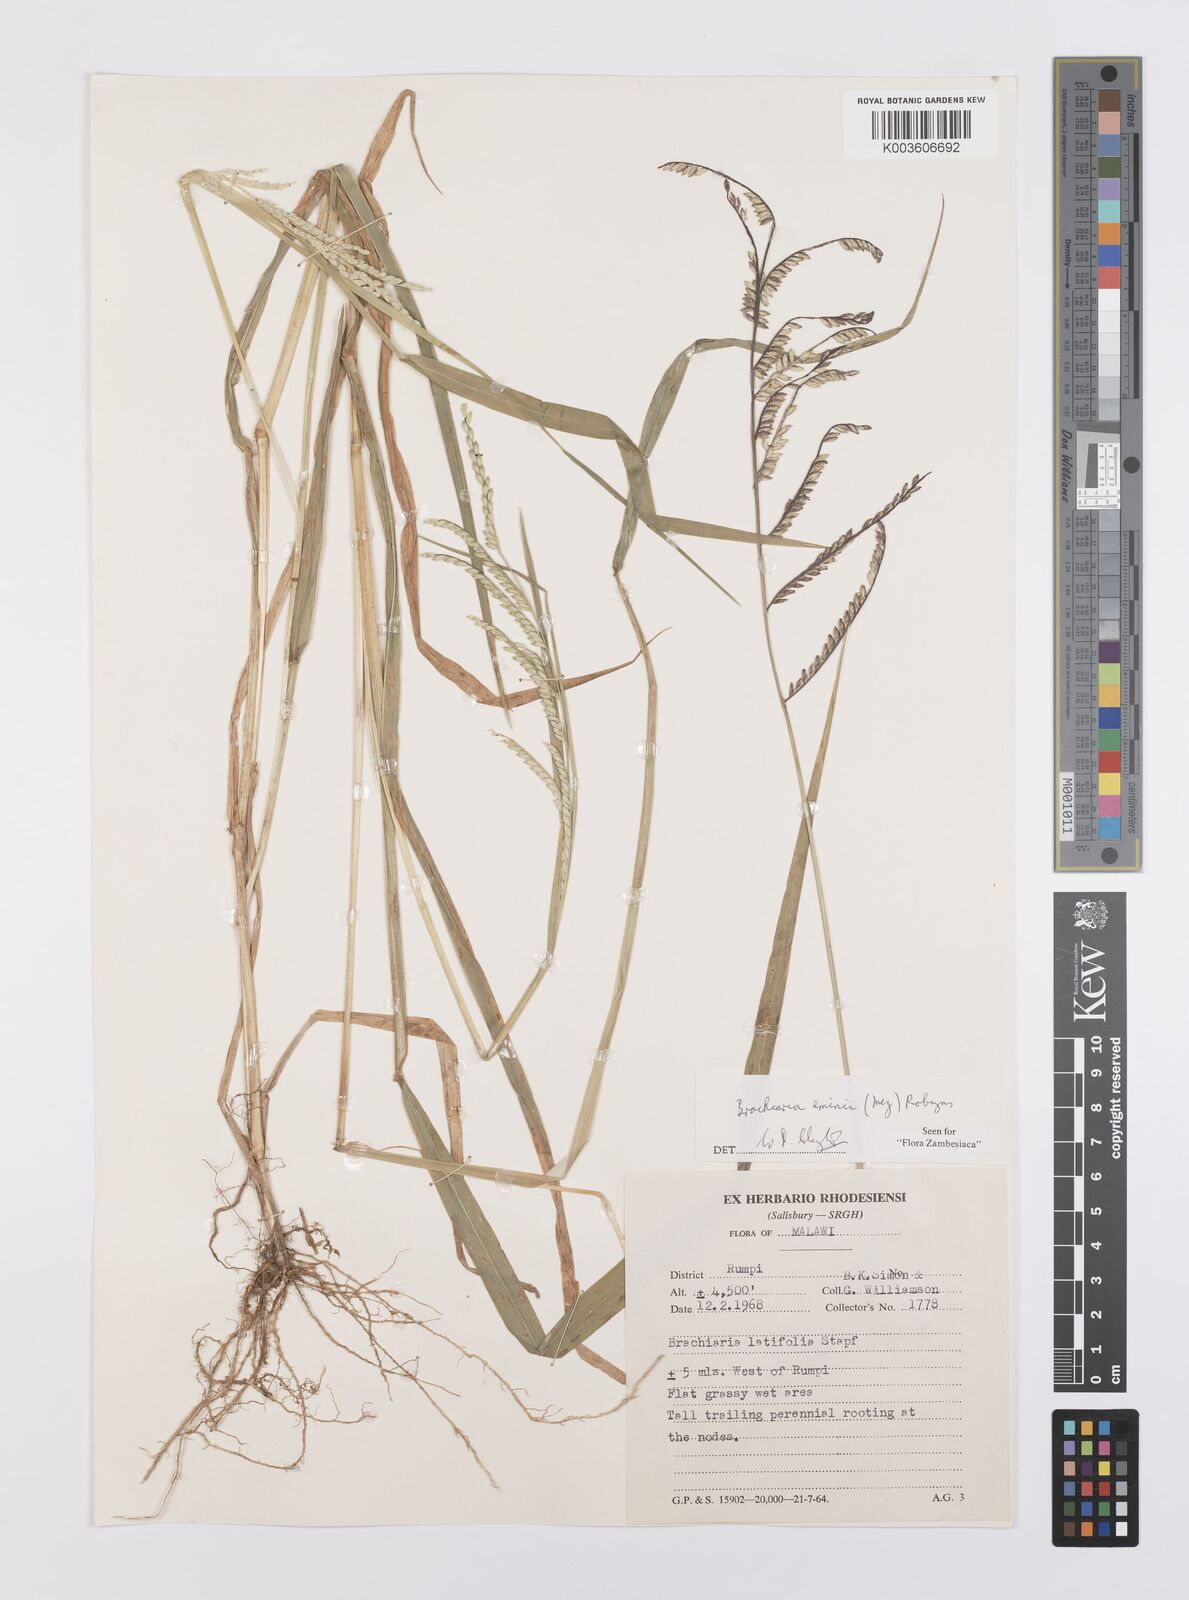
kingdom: Plantae
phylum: Tracheophyta
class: Liliopsida
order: Poales
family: Poaceae
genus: Urochloa
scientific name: Urochloa eminii
